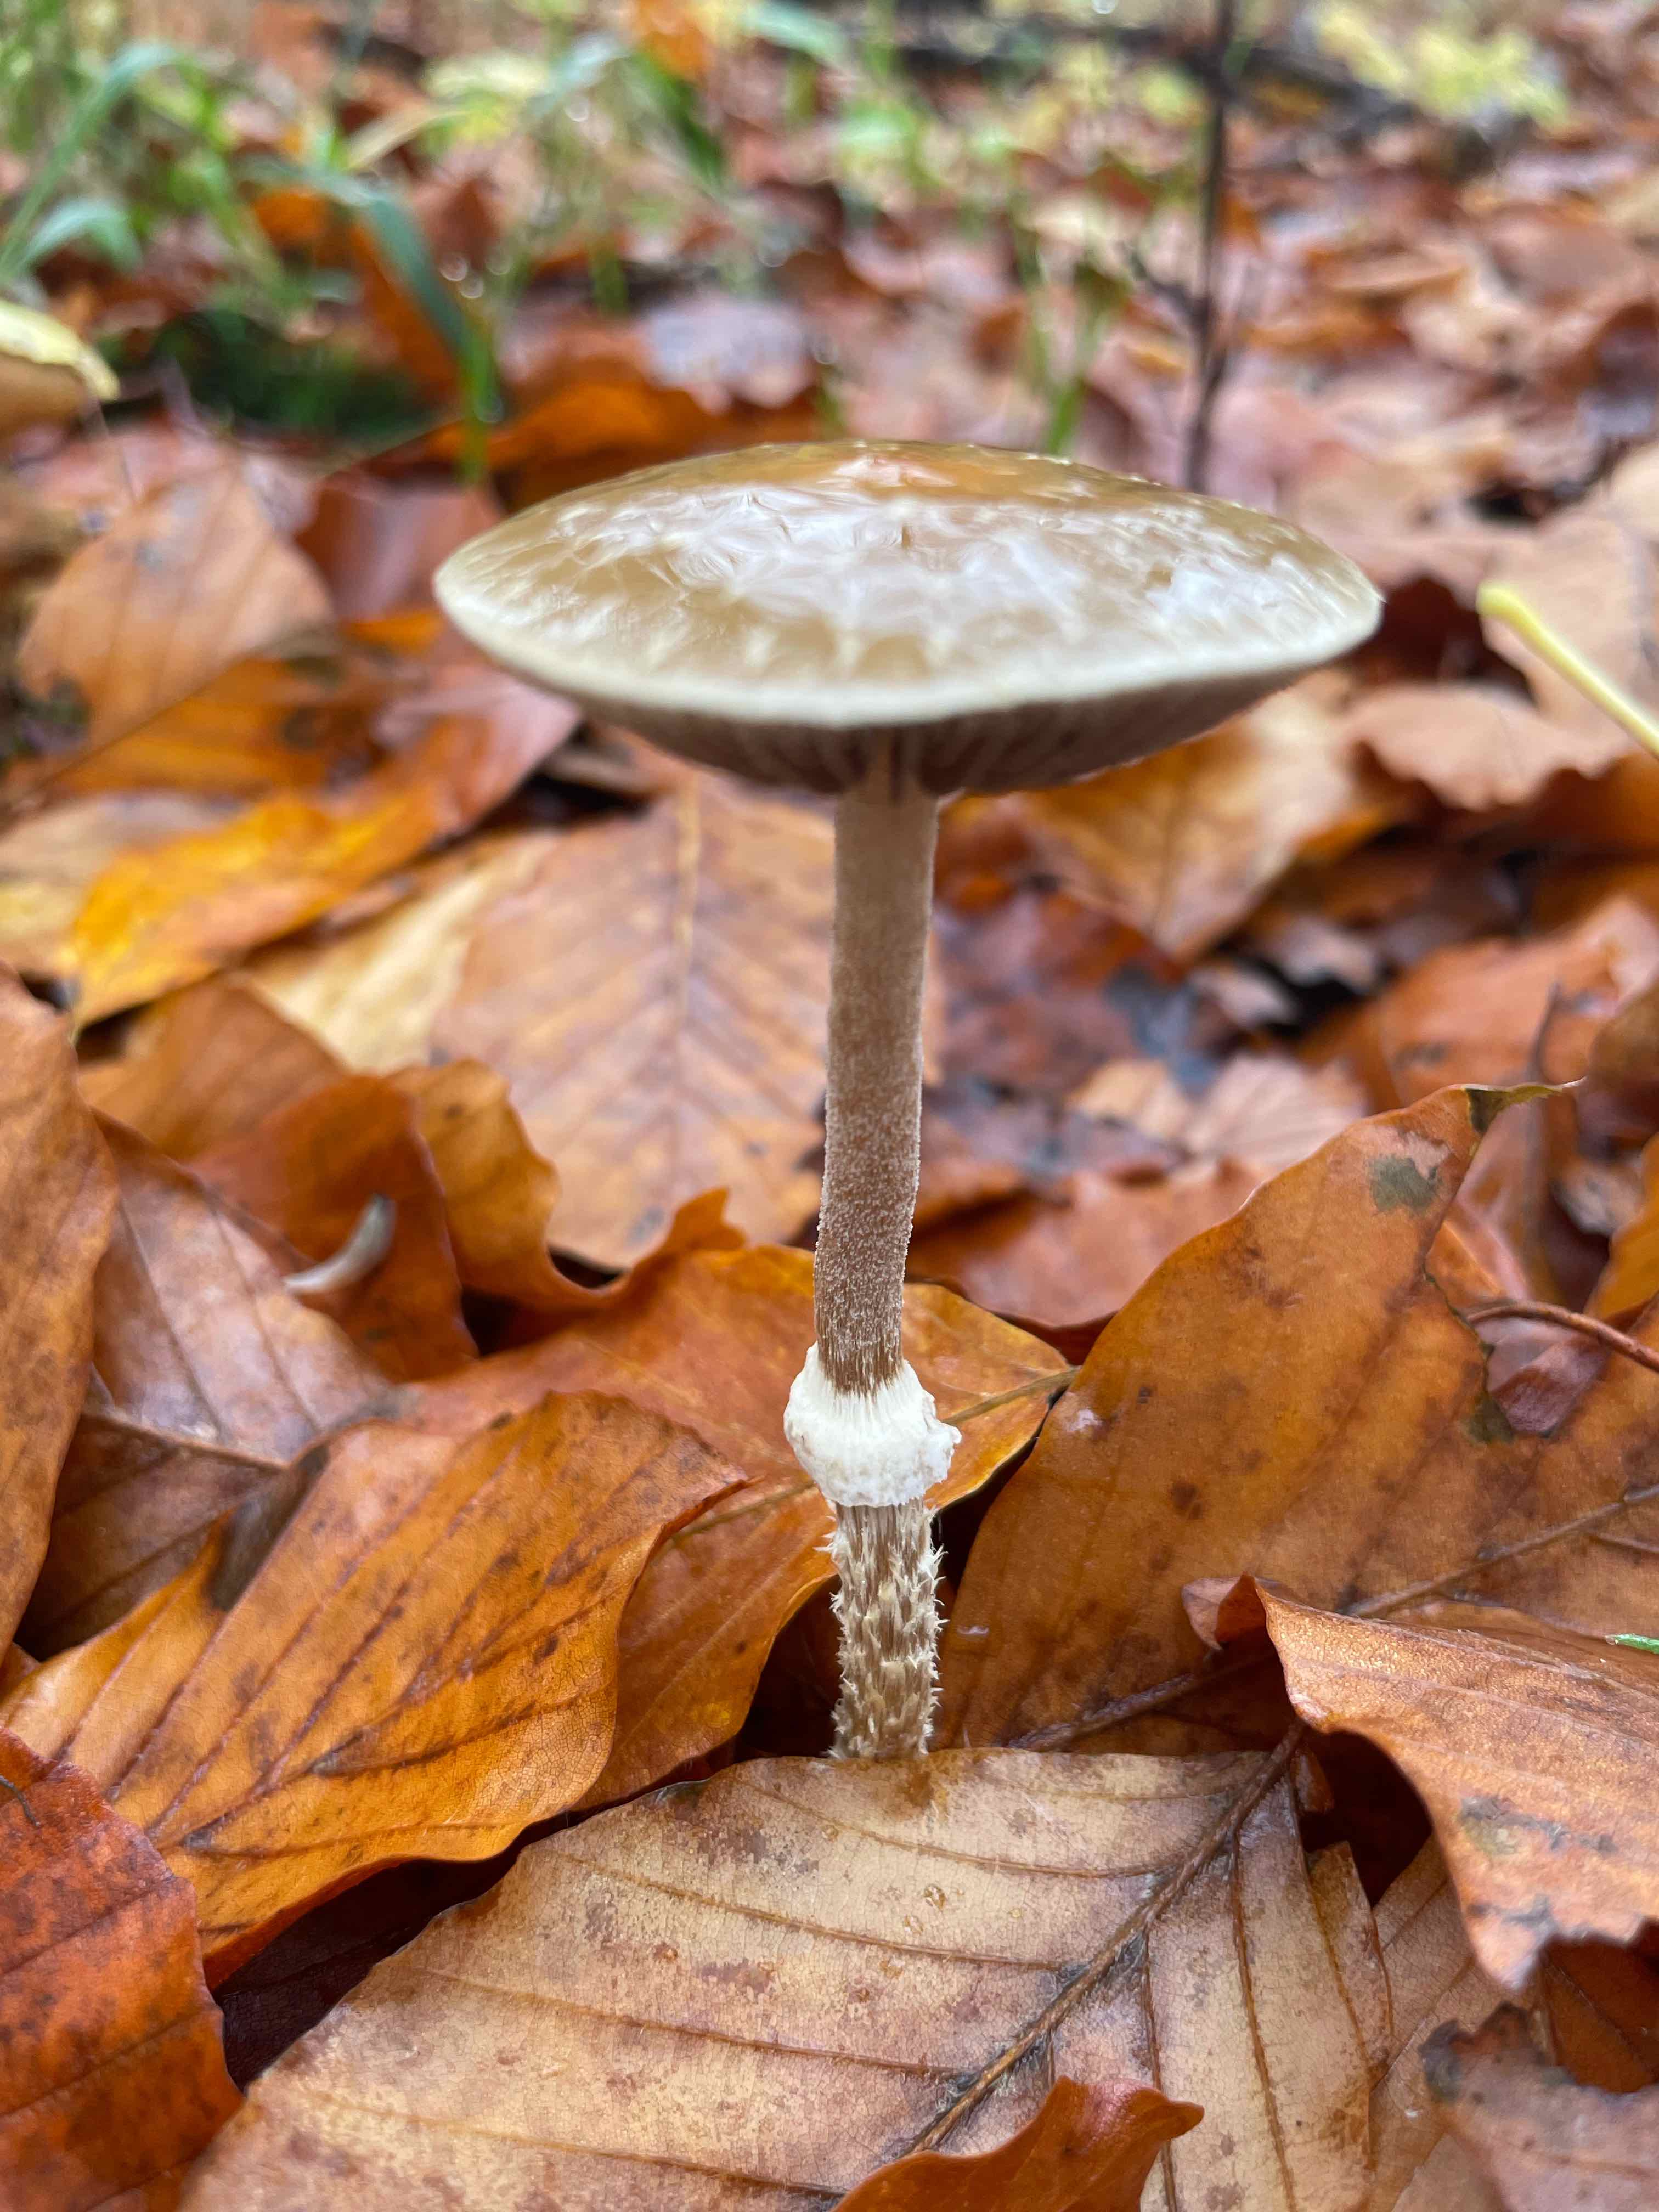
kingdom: Fungi
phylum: Basidiomycota
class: Agaricomycetes
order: Agaricales
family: Strophariaceae
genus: Leratiomyces
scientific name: Leratiomyces squamosus
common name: skællet bredblad
